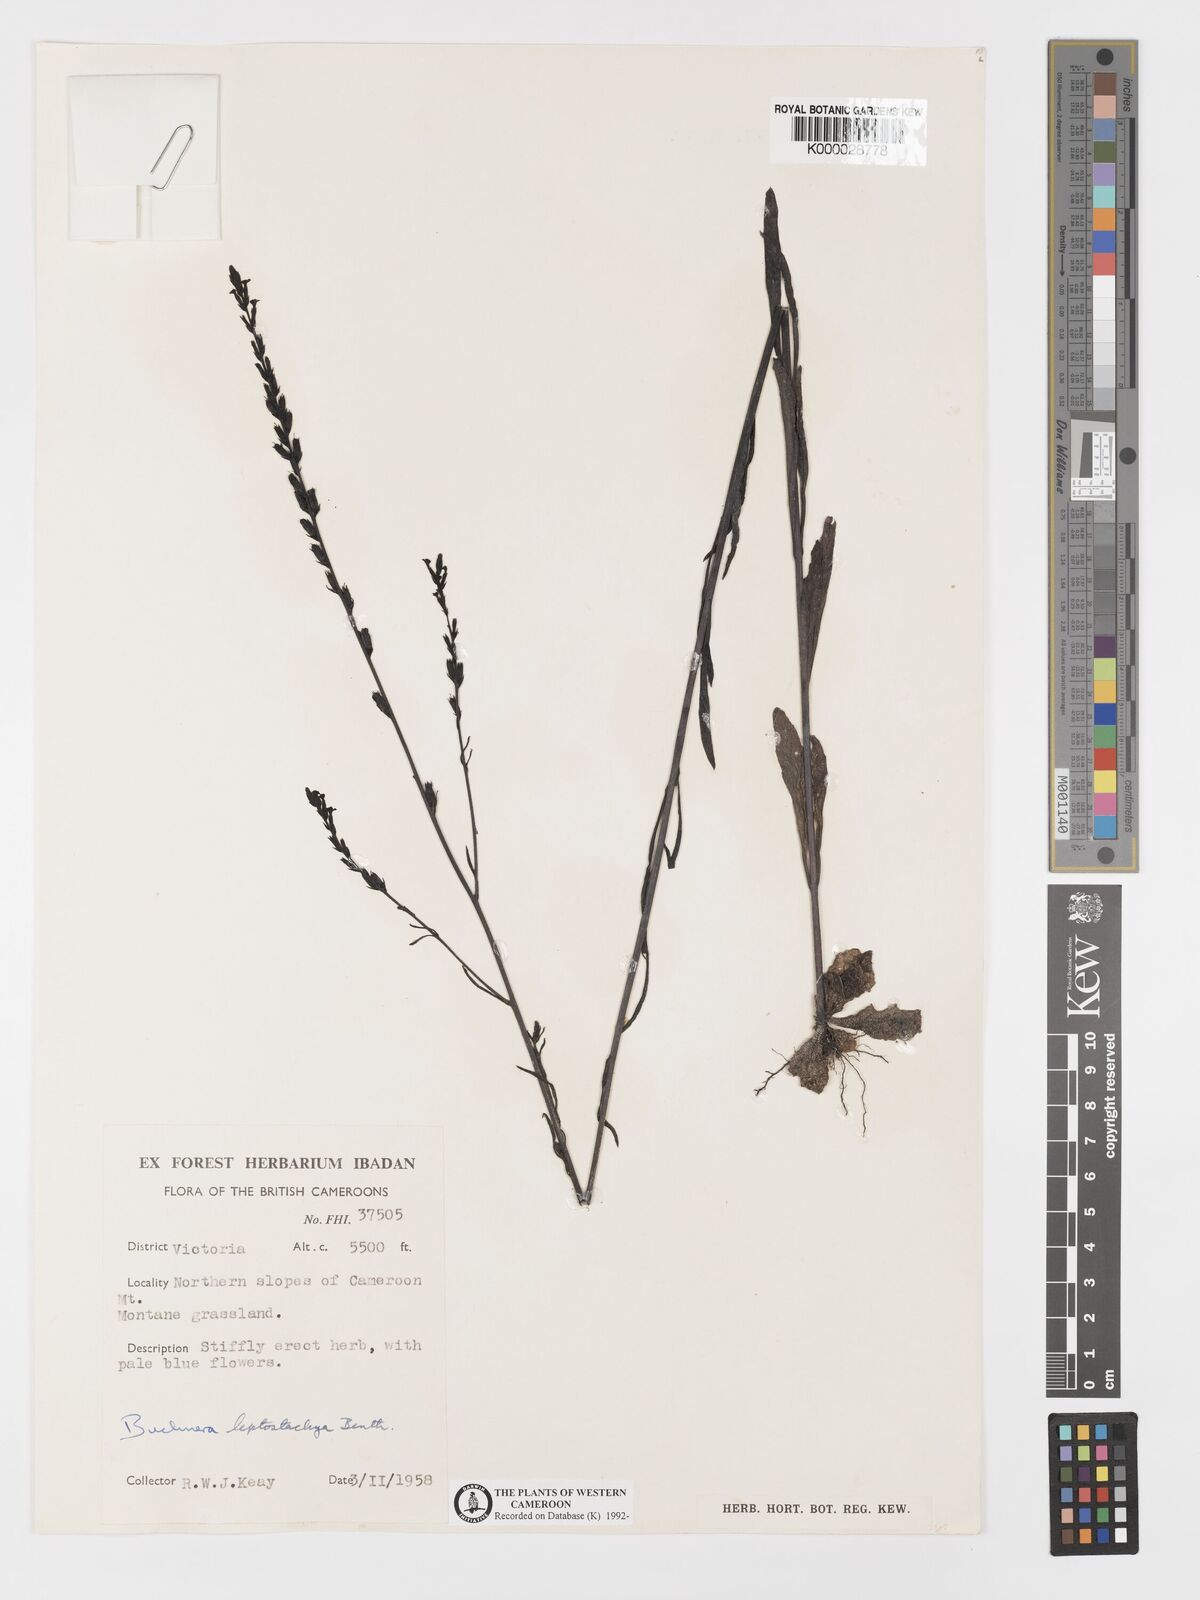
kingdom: Plantae
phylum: Tracheophyta
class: Magnoliopsida
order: Lamiales
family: Orobanchaceae
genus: Buchnera
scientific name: Buchnera leptostachya
